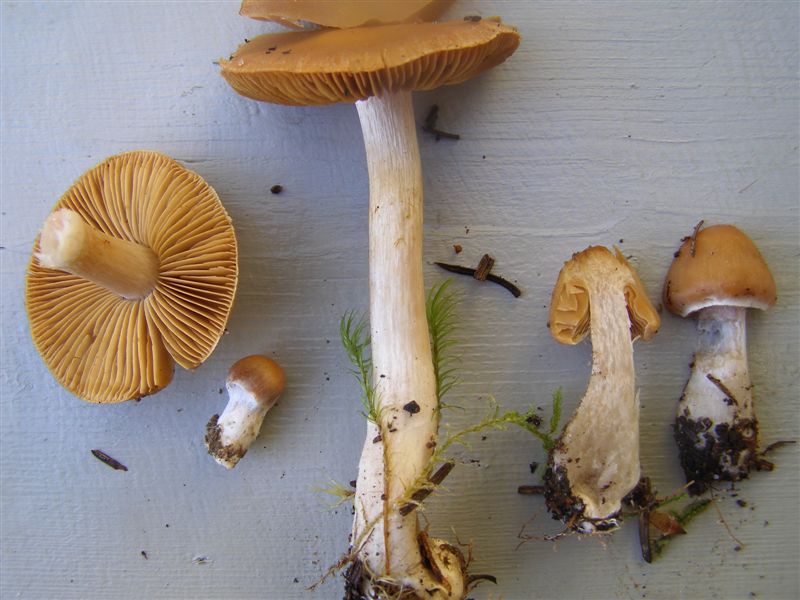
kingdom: Fungi
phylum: Basidiomycota
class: Agaricomycetes
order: Agaricales
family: Cortinariaceae
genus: Cortinarius
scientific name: Cortinarius kauffmanianus
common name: plantage-slørhat
